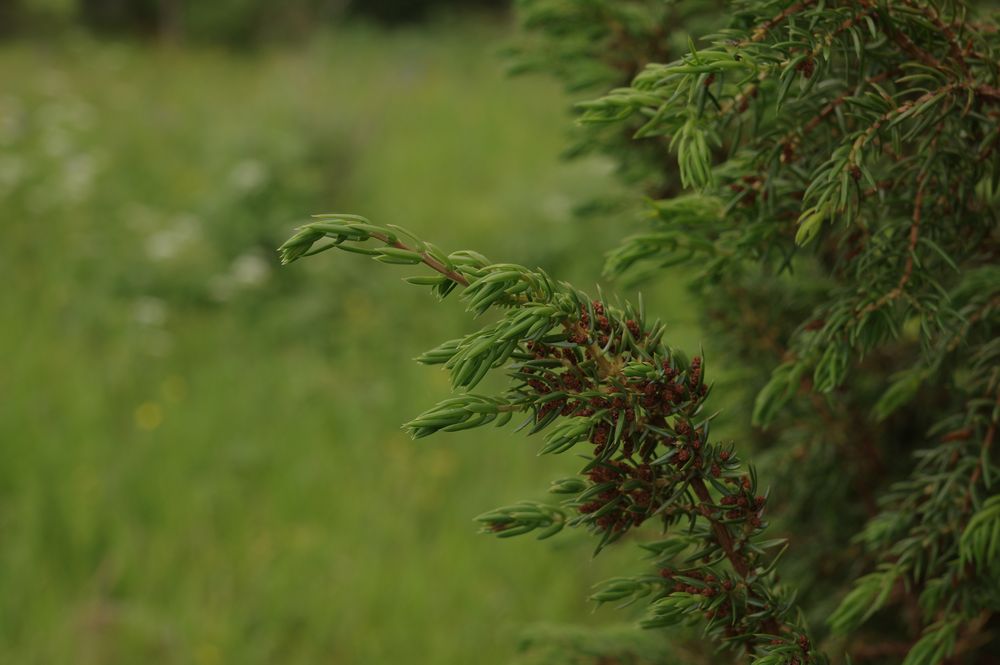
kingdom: Plantae
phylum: Tracheophyta
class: Pinopsida
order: Pinales
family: Cupressaceae
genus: Juniperus
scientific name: Juniperus communis
